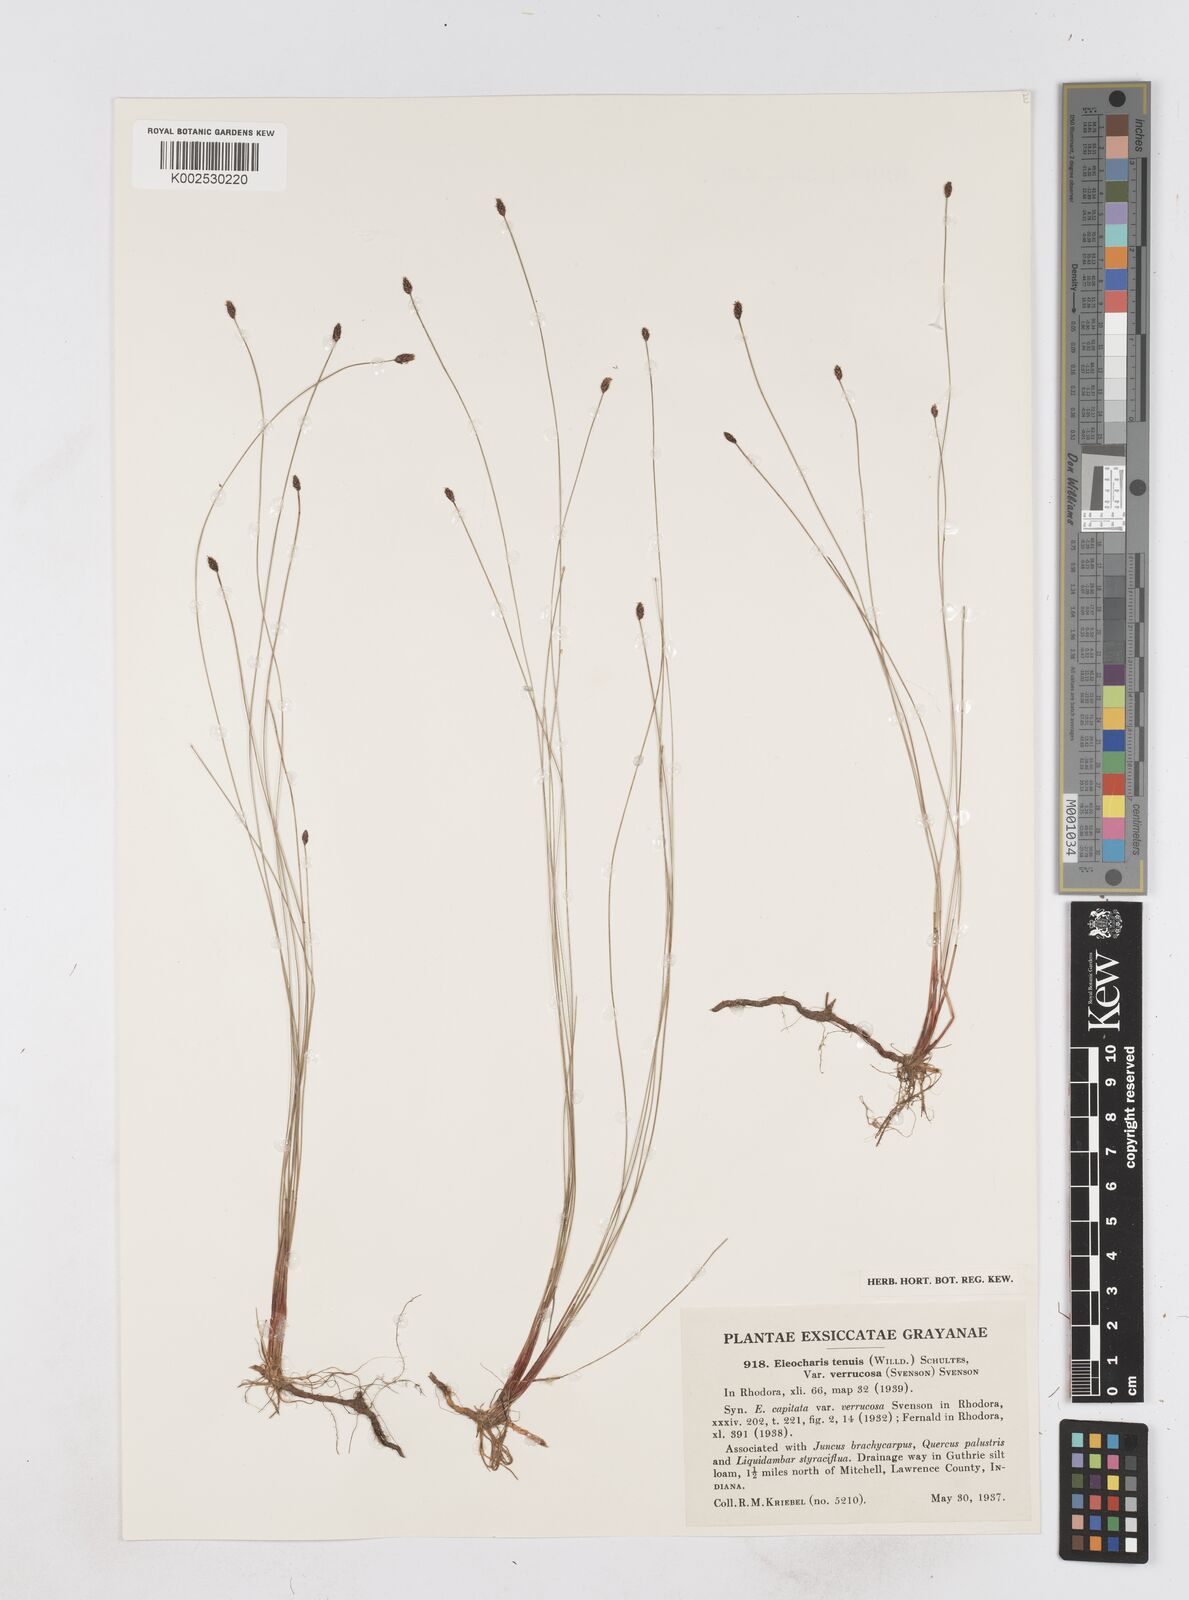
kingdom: Plantae
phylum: Tracheophyta
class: Liliopsida
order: Poales
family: Cyperaceae
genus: Eleocharis
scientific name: Eleocharis tenuis
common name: Dog's hair
